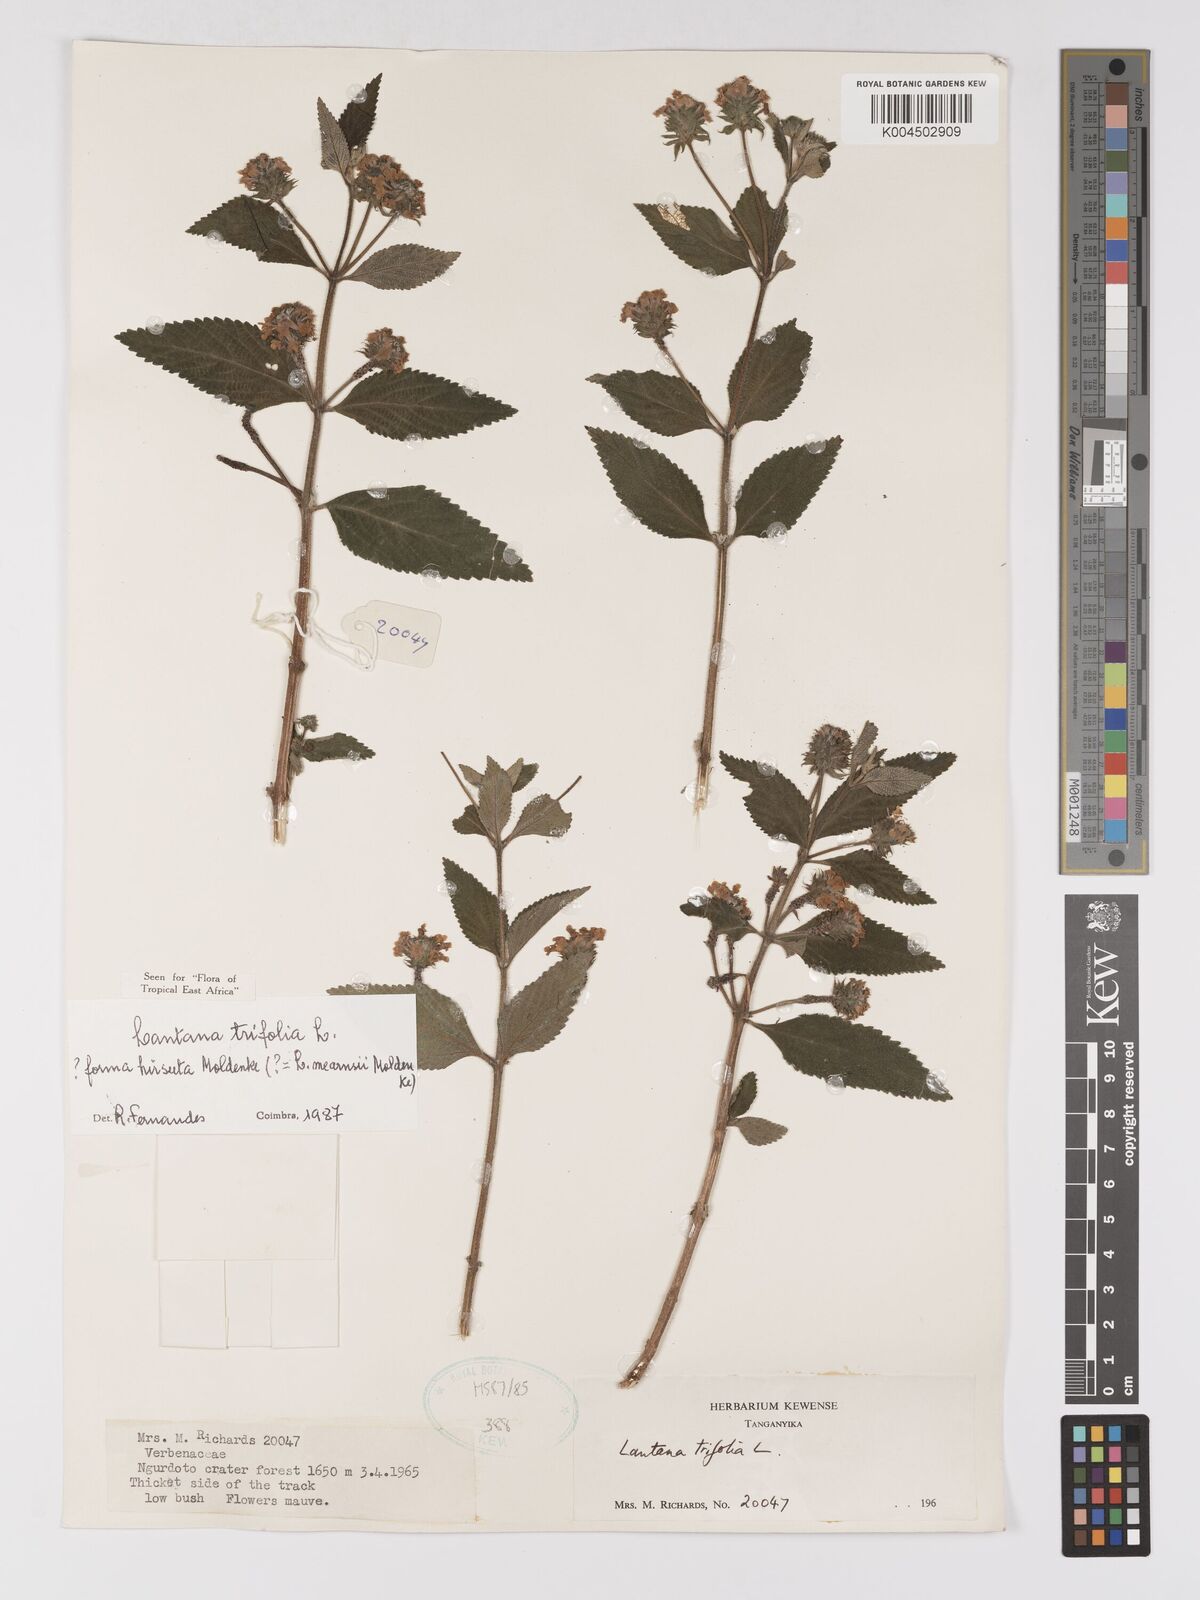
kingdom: Plantae
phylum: Tracheophyta
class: Magnoliopsida
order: Lamiales
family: Verbenaceae
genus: Lantana
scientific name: Lantana trifolia
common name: Sweet-sage
